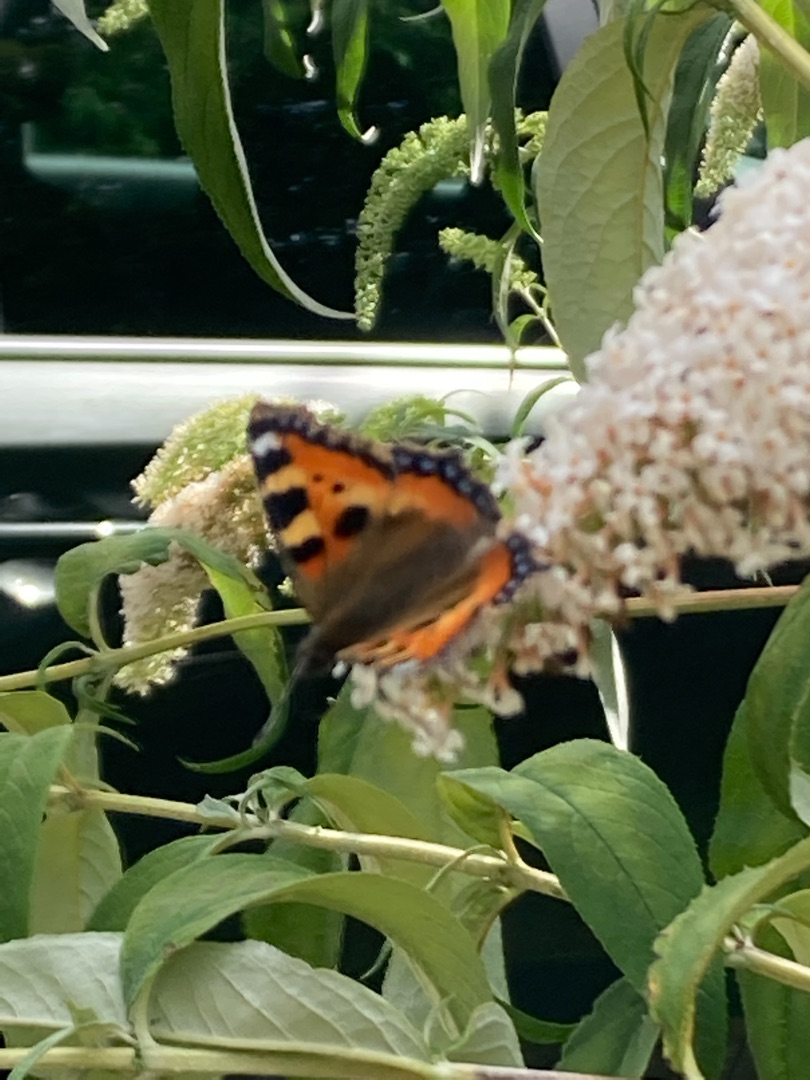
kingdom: Animalia
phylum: Arthropoda
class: Insecta
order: Lepidoptera
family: Nymphalidae
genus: Aglais
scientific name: Aglais urticae
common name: Nældens takvinge
